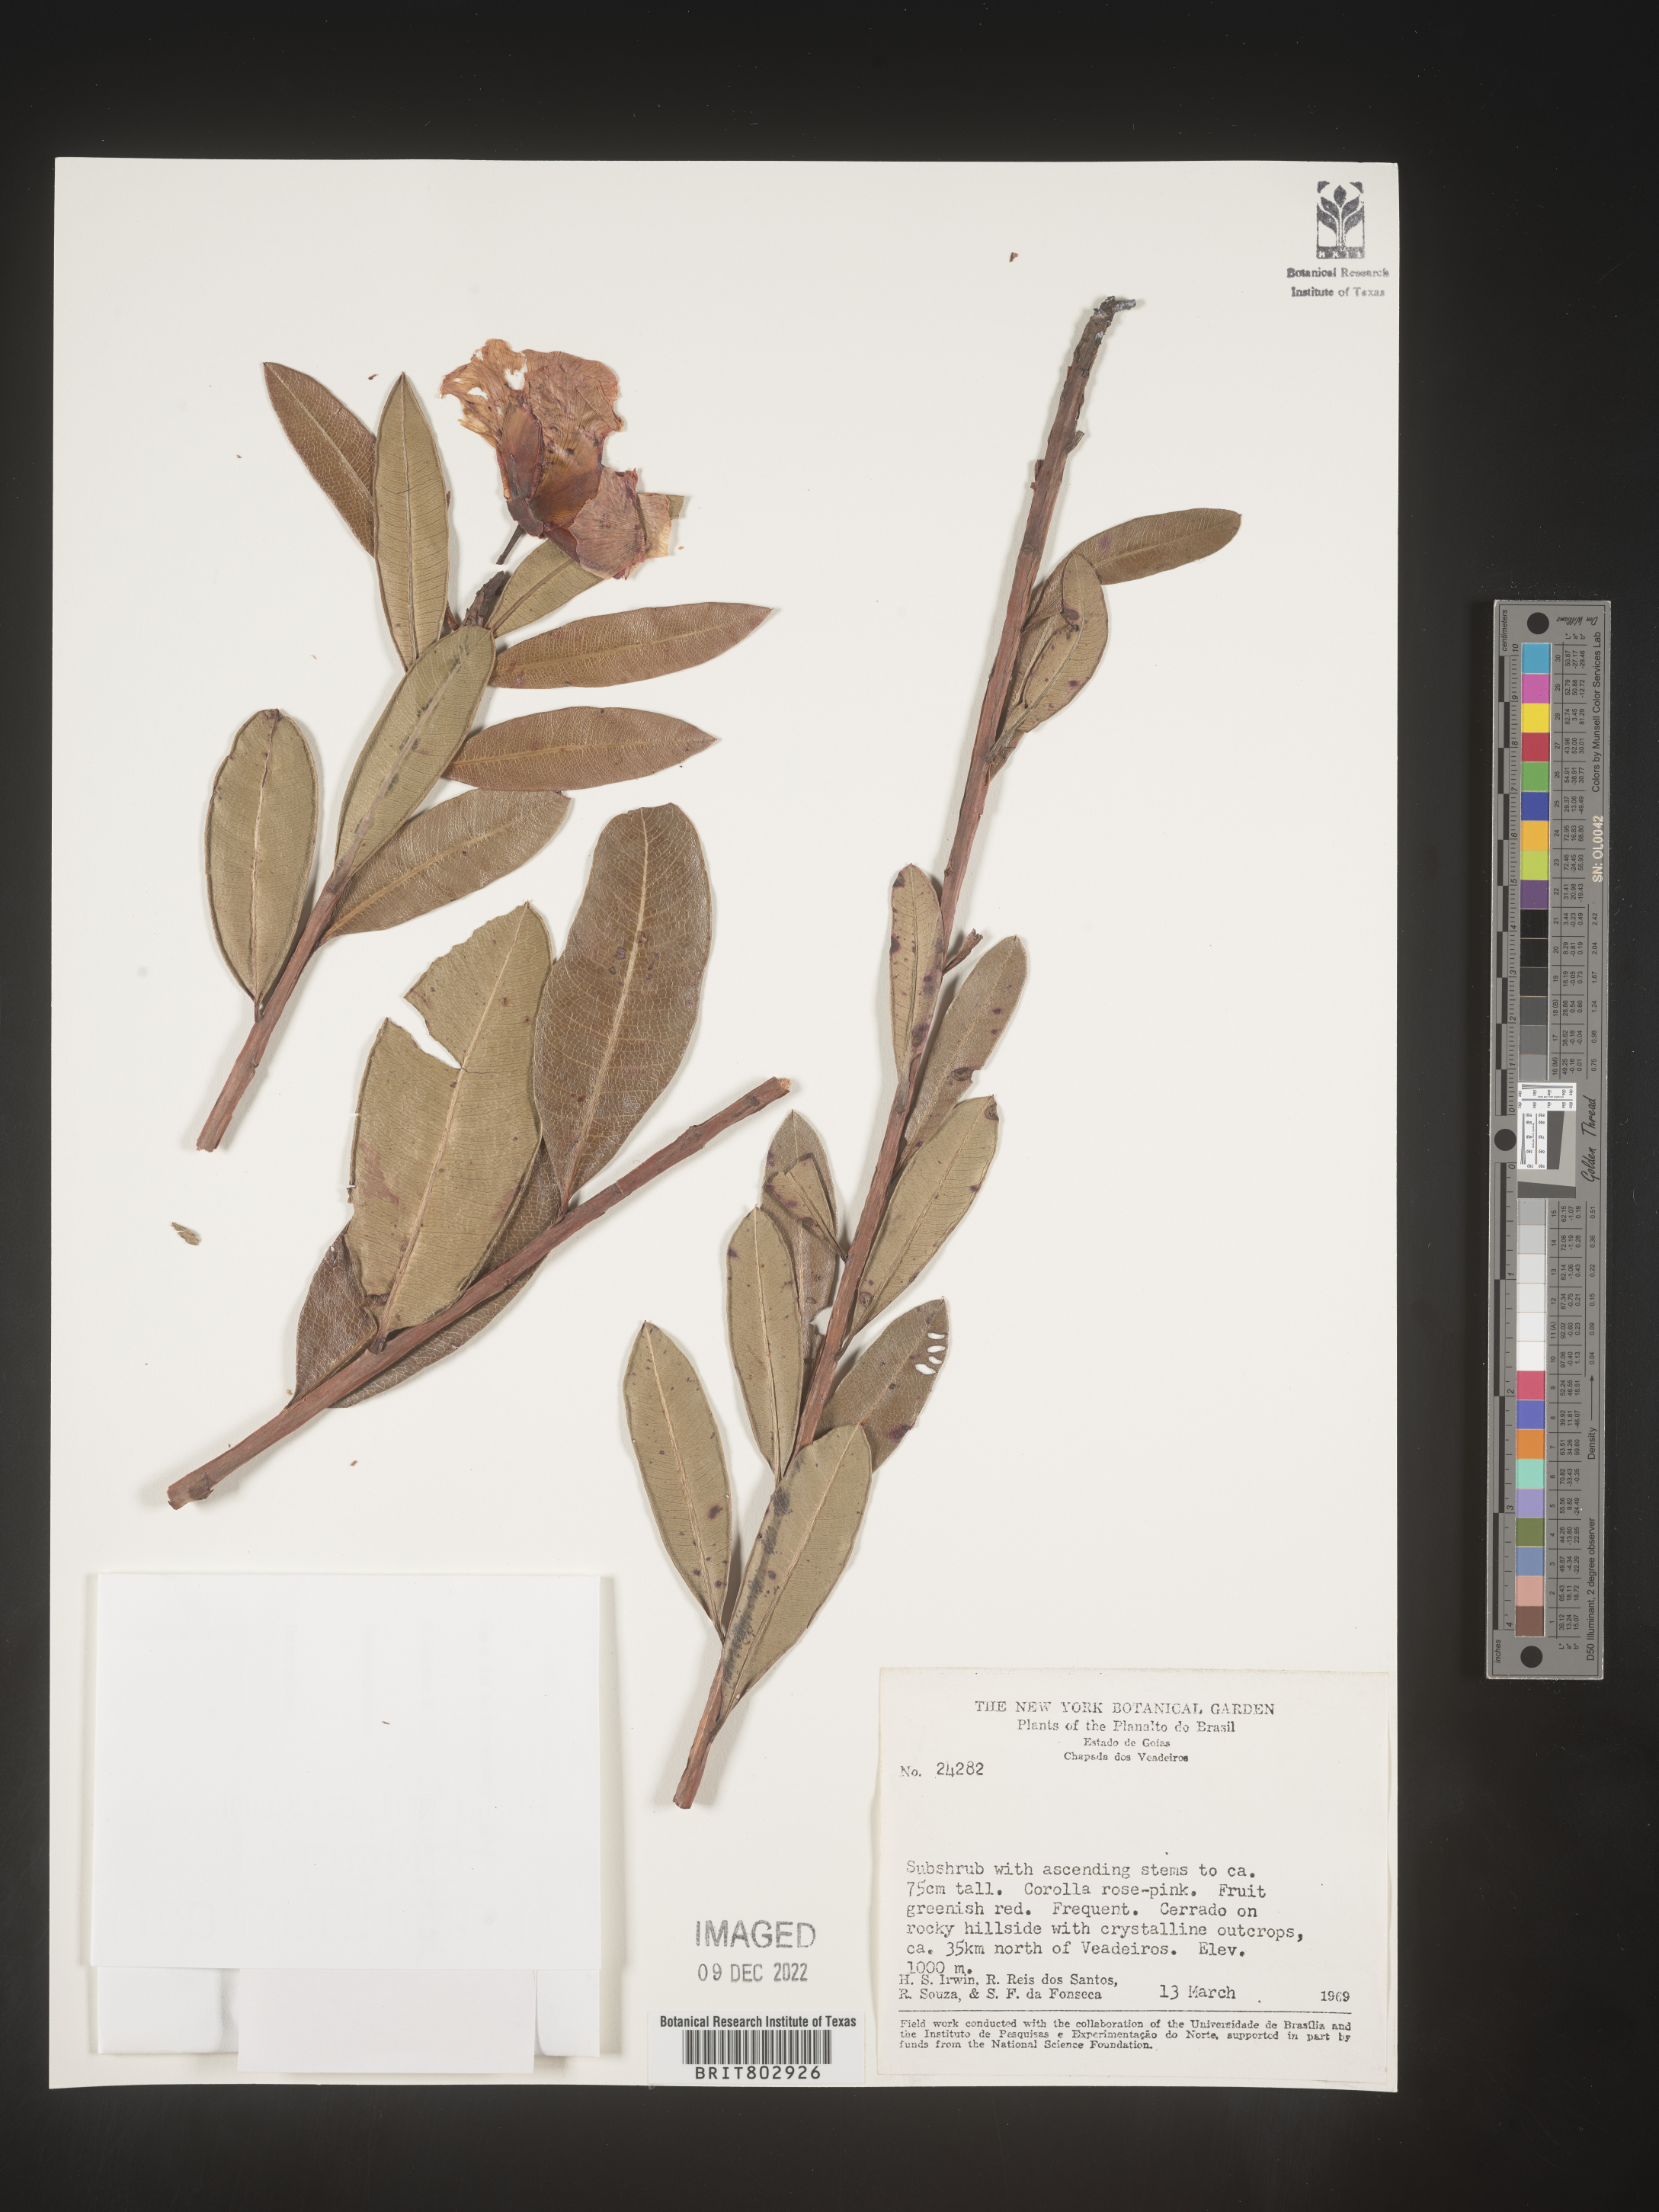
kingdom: Plantae
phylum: Tracheophyta
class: Magnoliopsida
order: Malpighiales
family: Calophyllaceae
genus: Kielmeyera
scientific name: Kielmeyera
